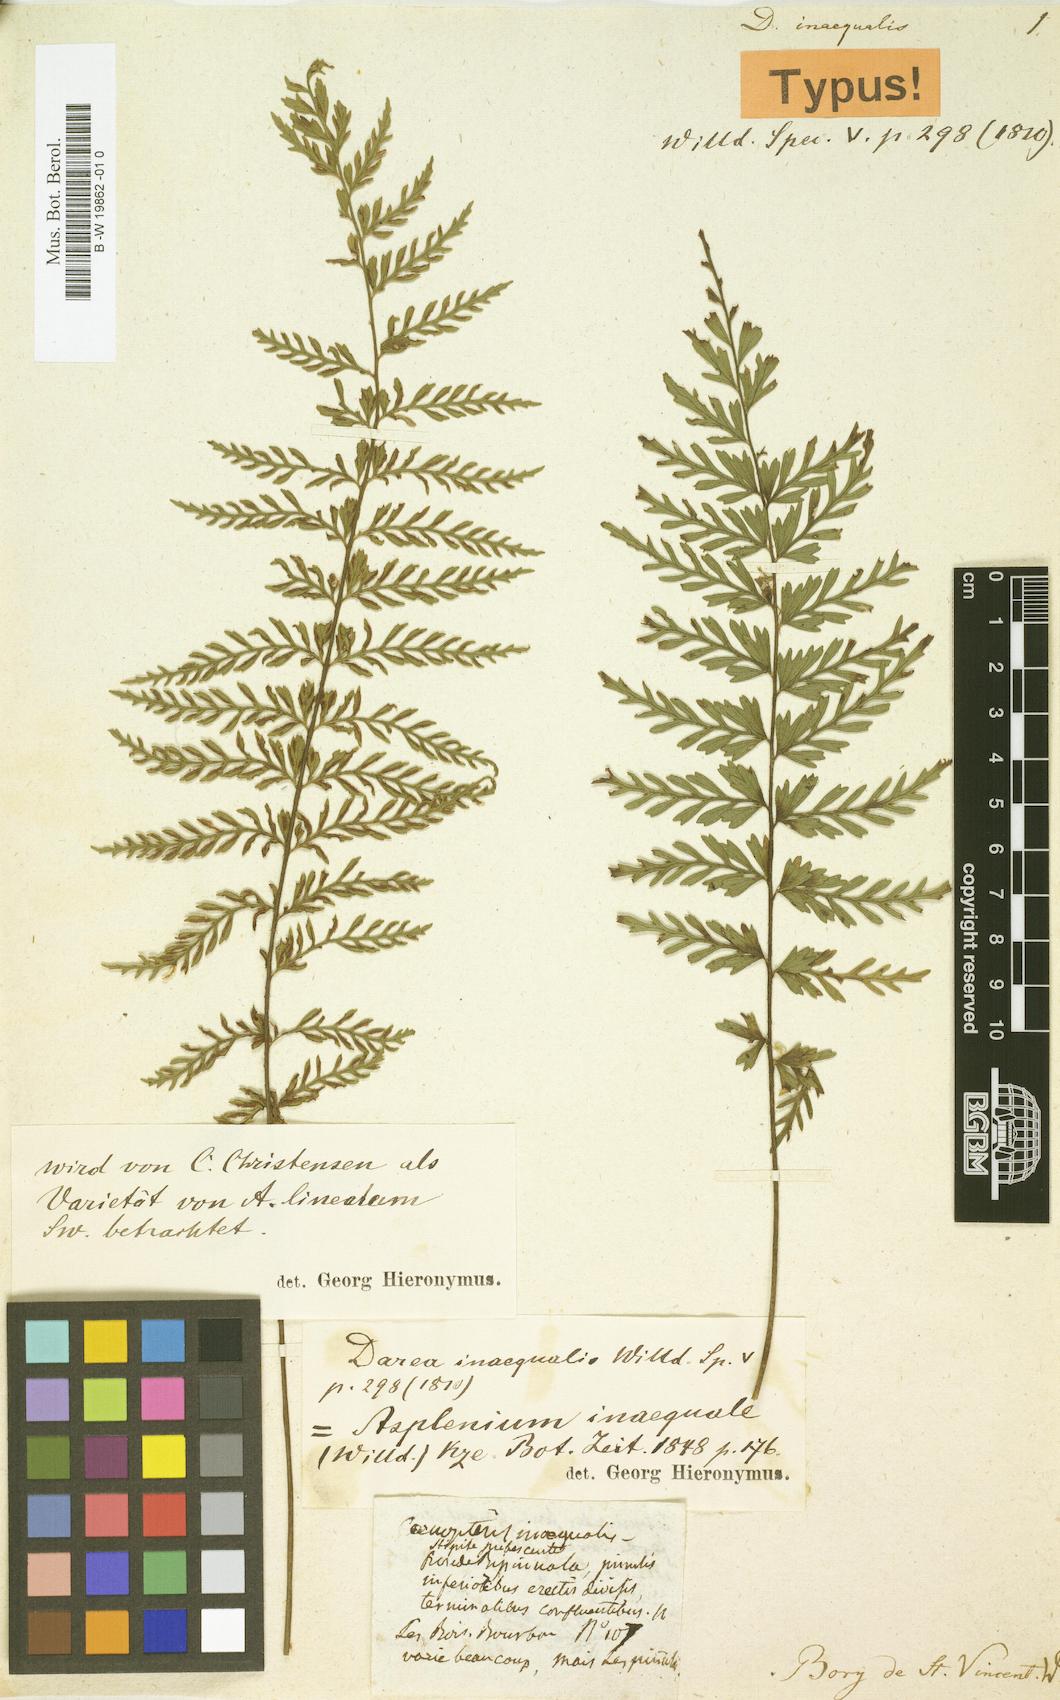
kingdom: Plantae
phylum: Tracheophyta
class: Polypodiopsida
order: Polypodiales
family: Aspleniaceae
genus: Asplenium
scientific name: Asplenium daucifolium
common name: Mauritius spleenwort
